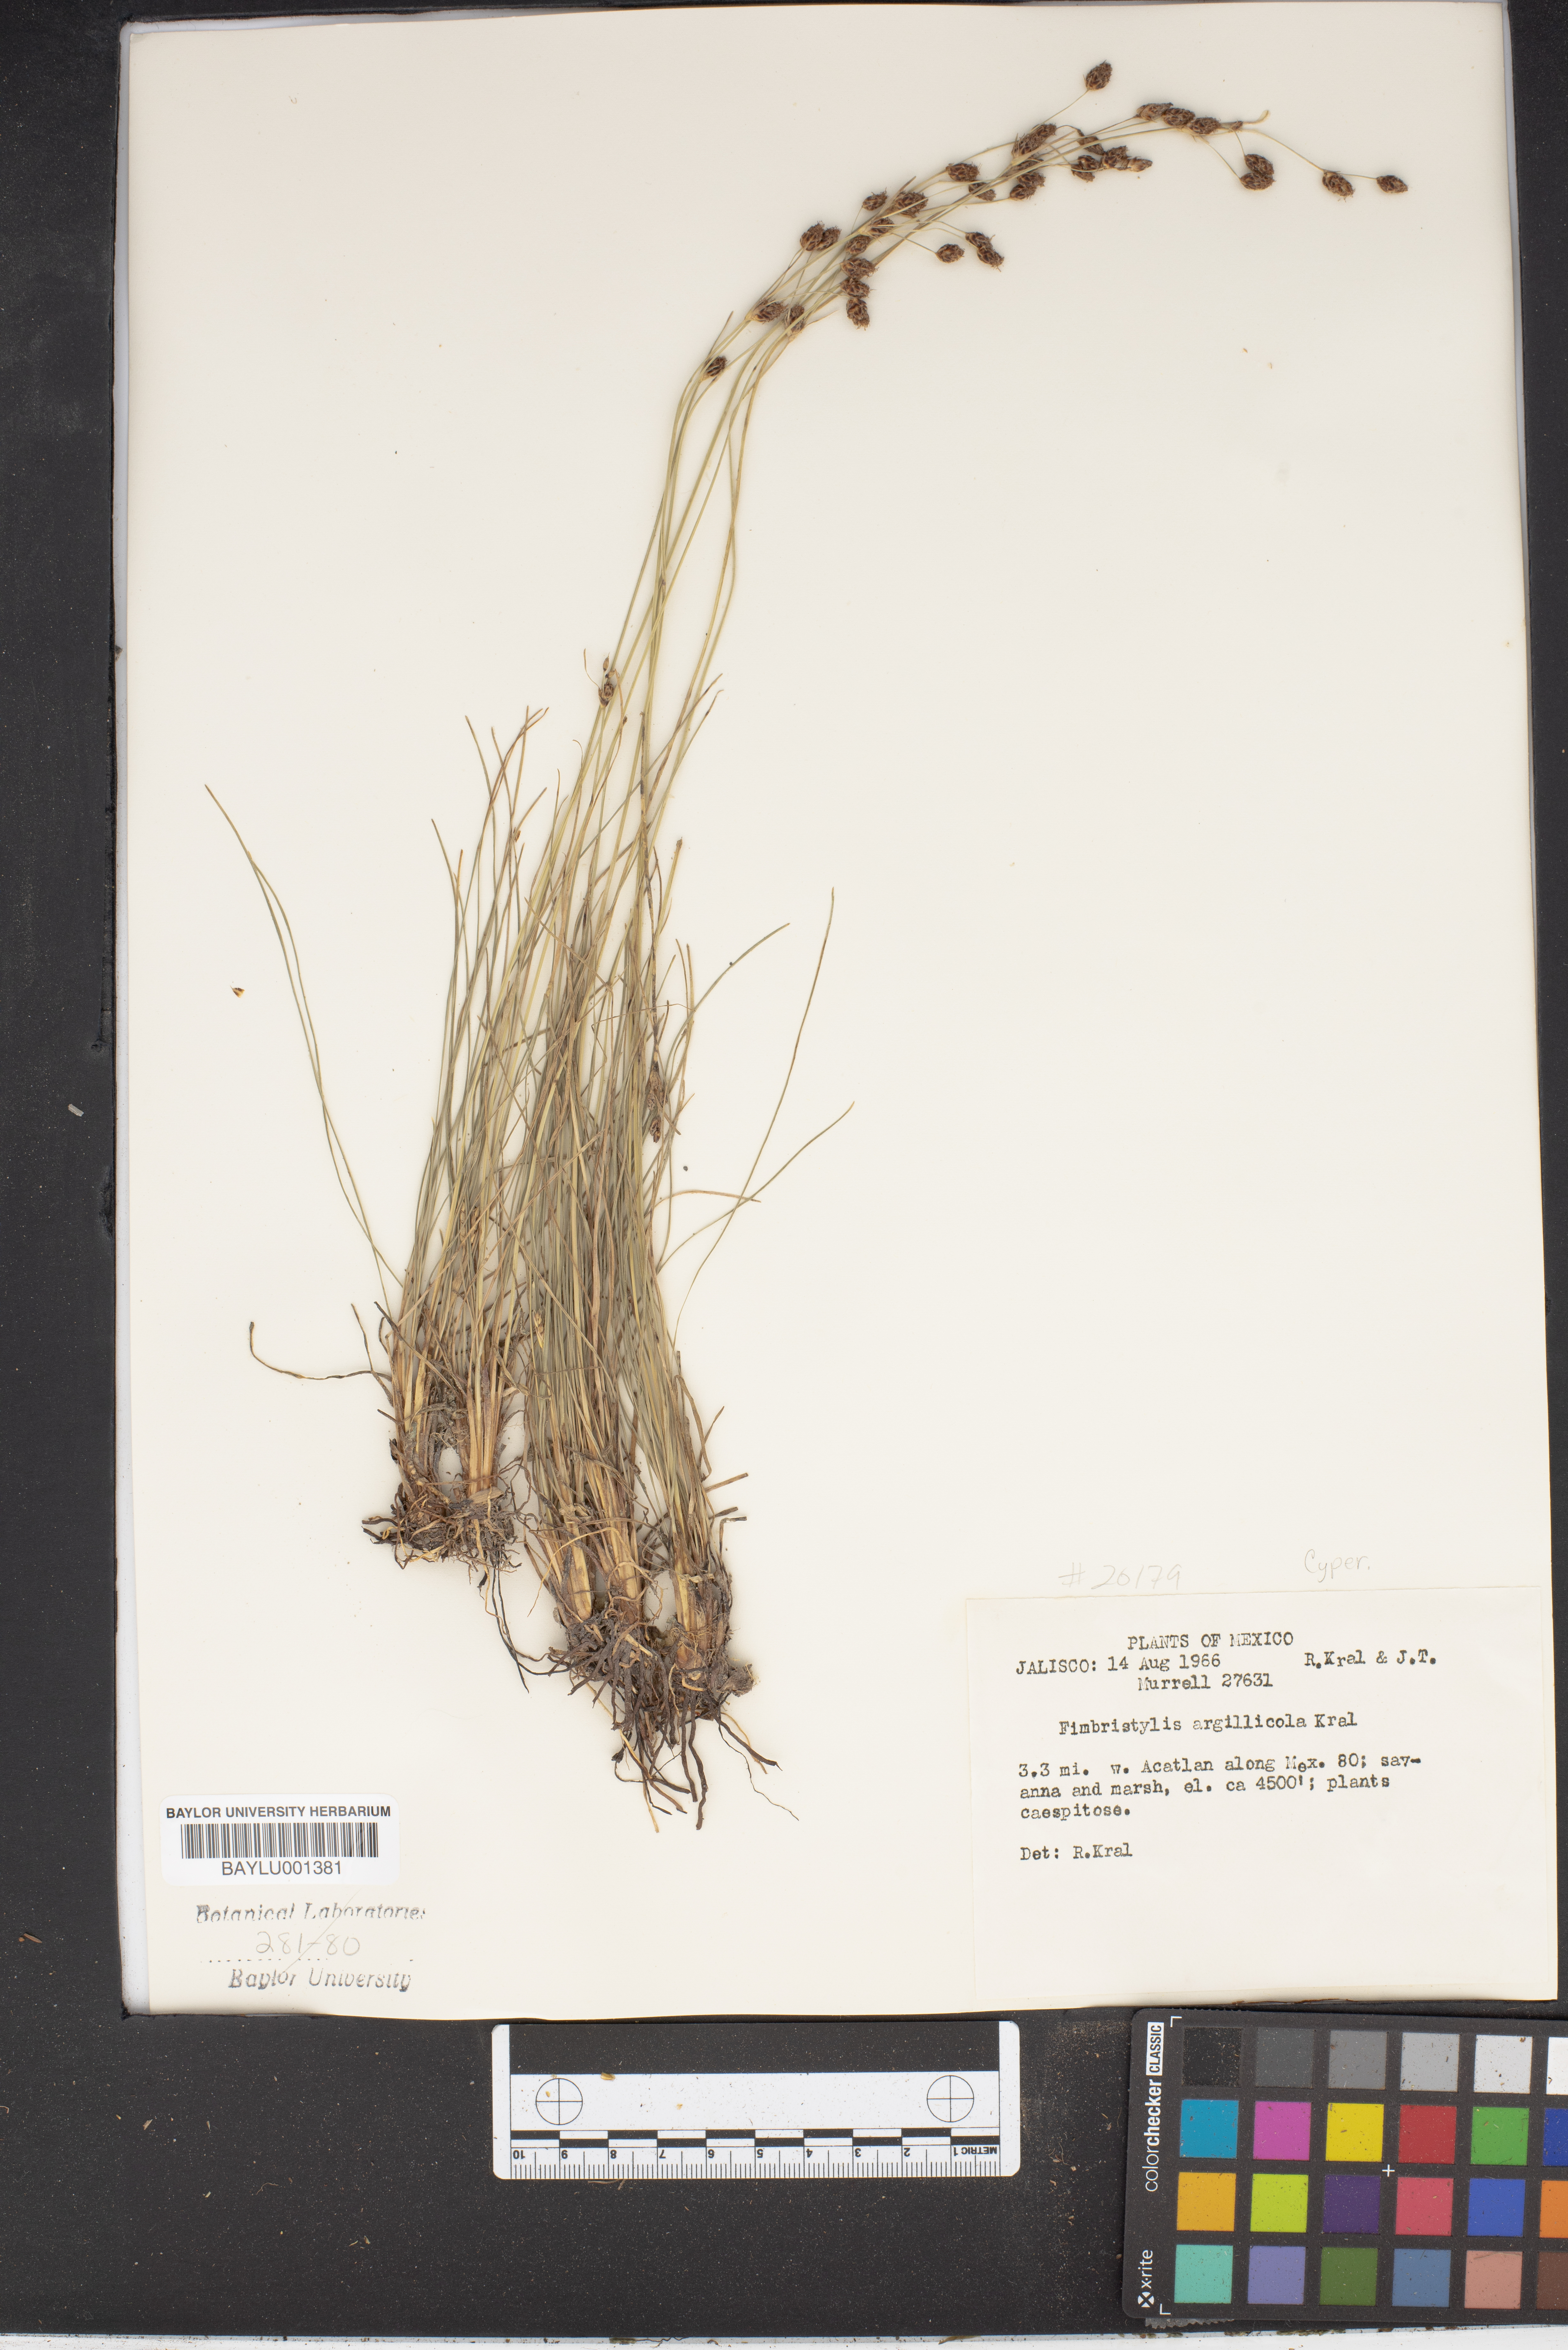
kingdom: Plantae
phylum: Tracheophyta
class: Liliopsida
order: Poales
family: Cyperaceae
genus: Fimbristylis
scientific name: Fimbristylis argillicola
